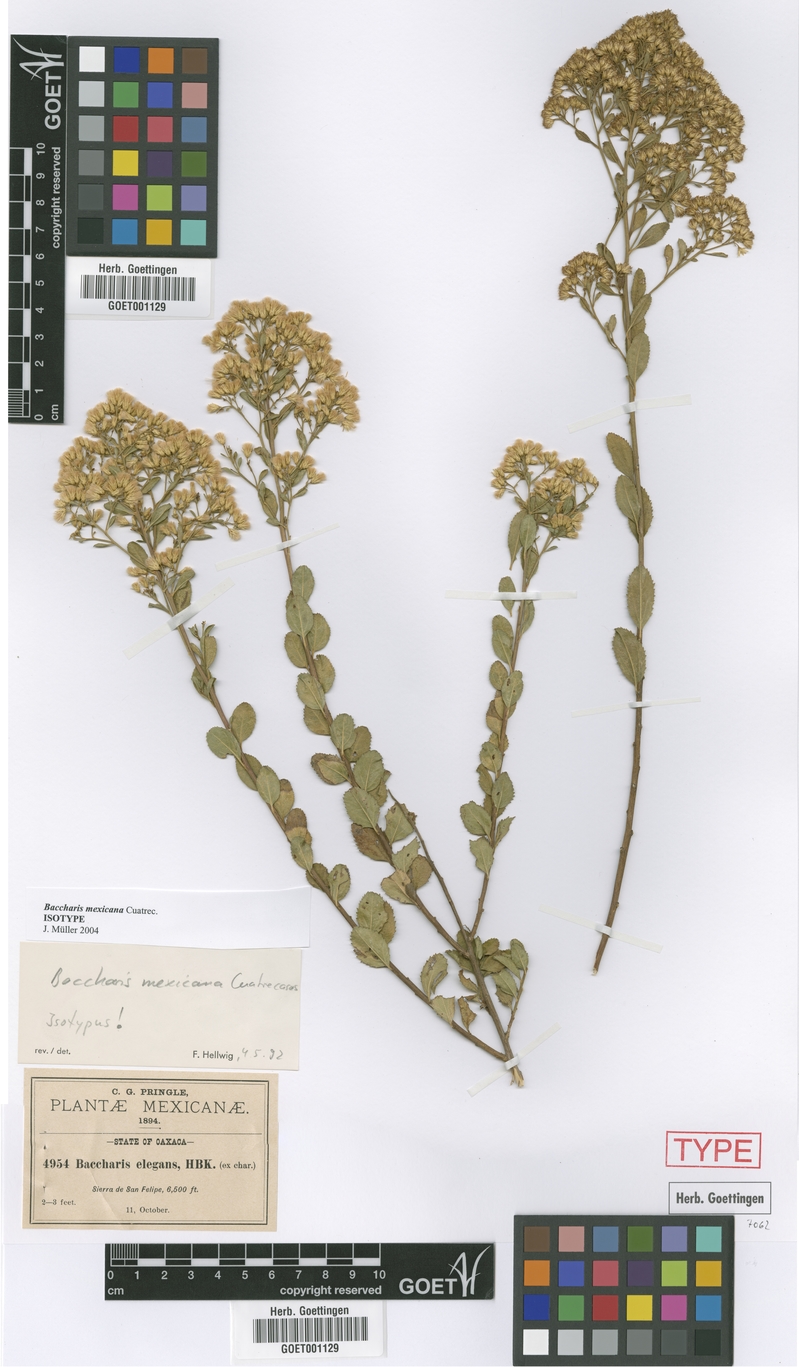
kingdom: Plantae
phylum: Tracheophyta
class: Magnoliopsida
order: Asterales
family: Asteraceae
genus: Baccharis
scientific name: Baccharis mexicana
